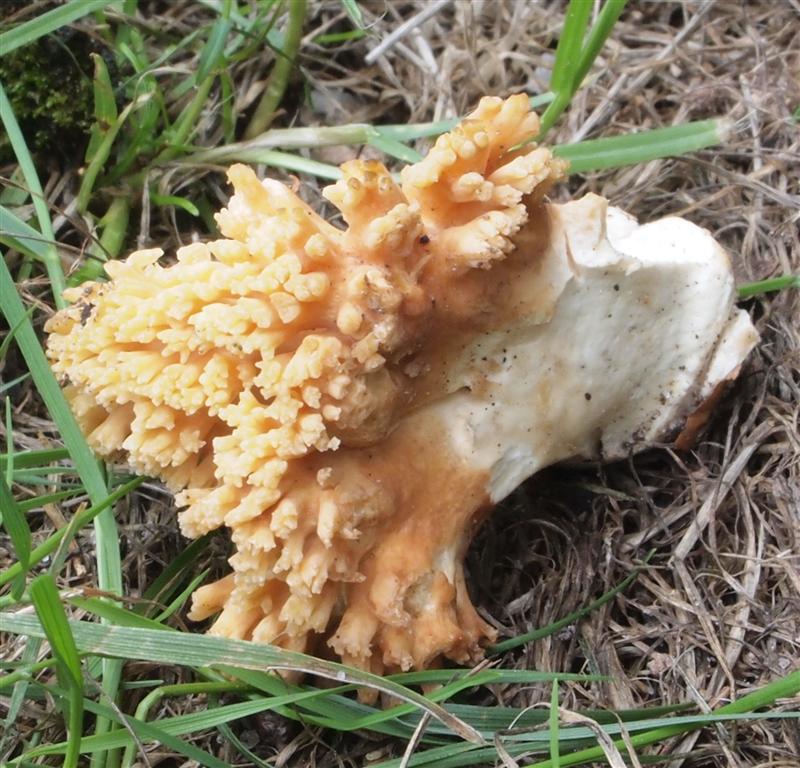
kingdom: Fungi
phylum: Basidiomycota
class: Agaricomycetes
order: Gomphales
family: Gomphaceae
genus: Ramaria
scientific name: Ramaria krieglsteineri
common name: smalsporet koralsvamp
